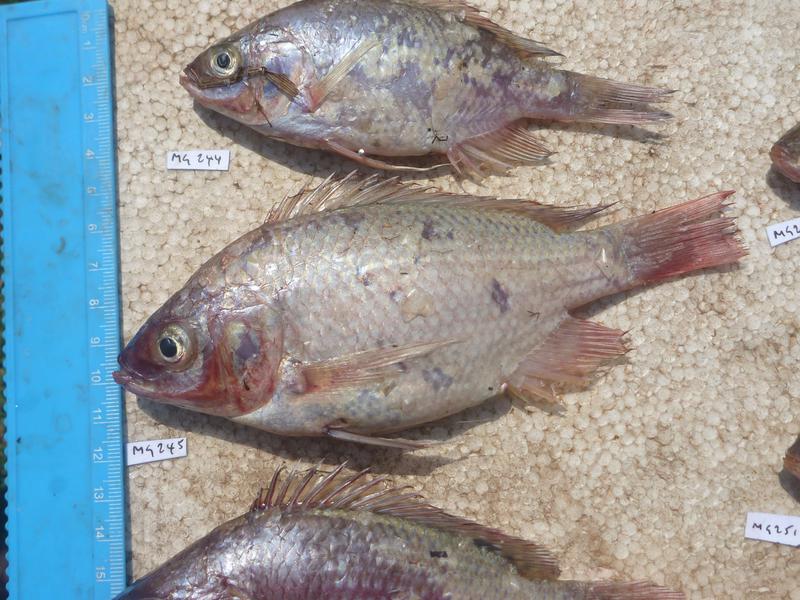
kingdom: Animalia
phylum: Chordata
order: Perciformes
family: Cichlidae
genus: Oreochromis
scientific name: Oreochromis esculentus
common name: Carp
